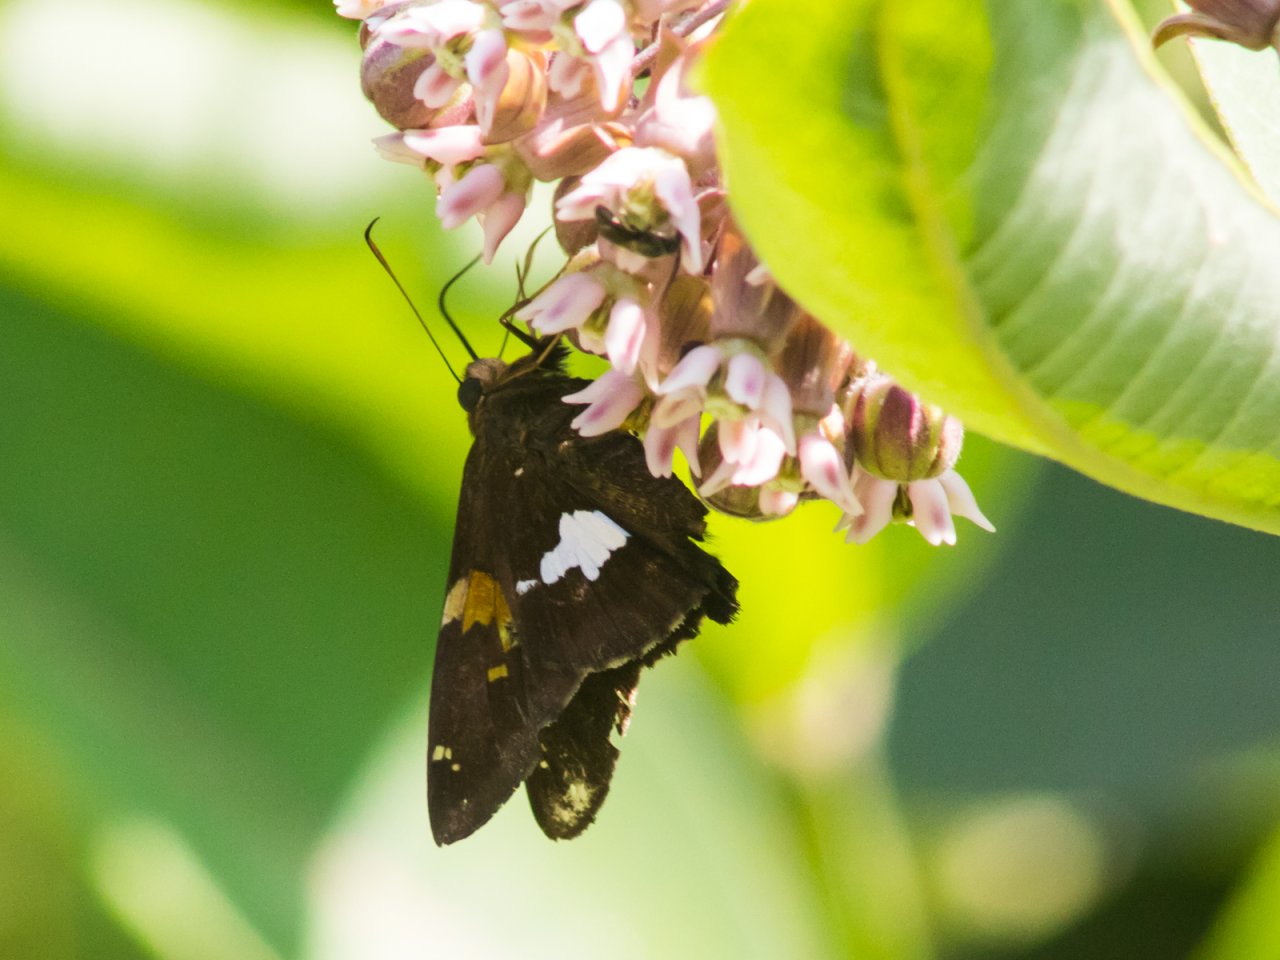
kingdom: Animalia
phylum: Arthropoda
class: Insecta
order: Lepidoptera
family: Hesperiidae
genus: Epargyreus
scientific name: Epargyreus clarus
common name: Silver-spotted Skipper
